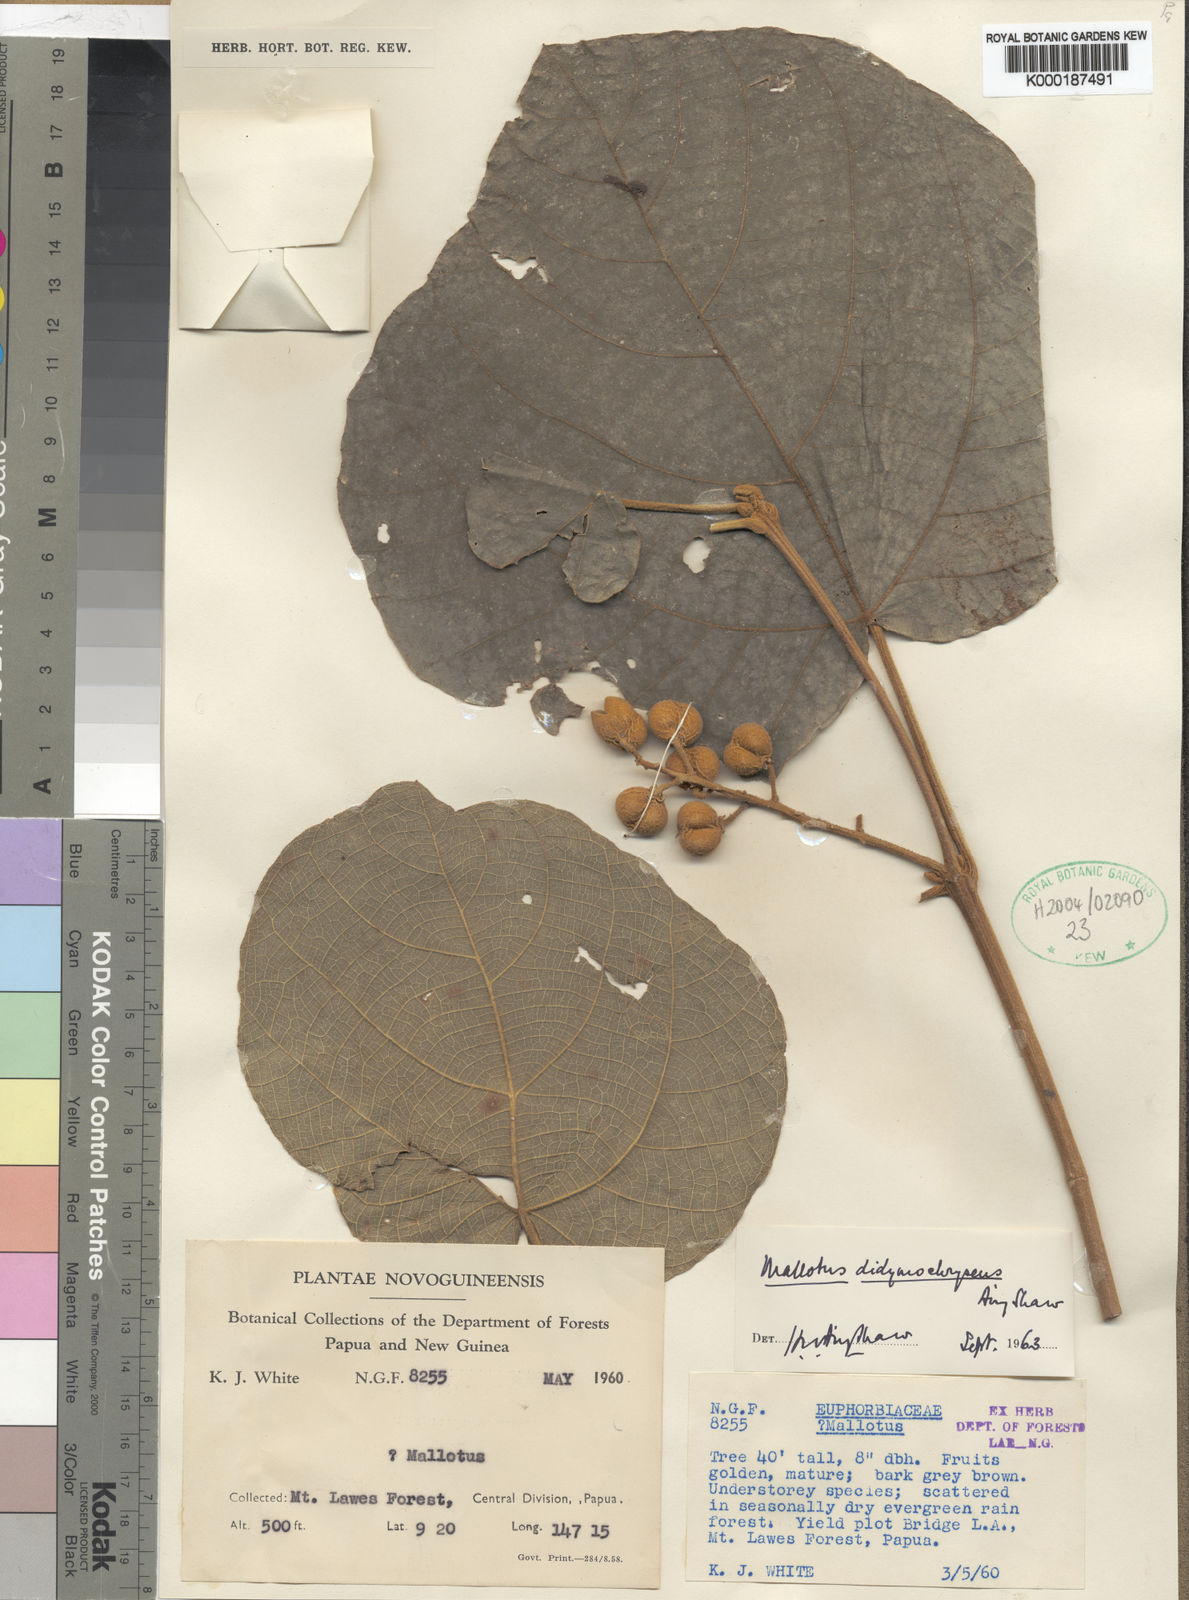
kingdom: Plantae
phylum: Tracheophyta
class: Magnoliopsida
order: Malpighiales
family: Euphorbiaceae
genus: Mallotus
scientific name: Mallotus didymochryseus
